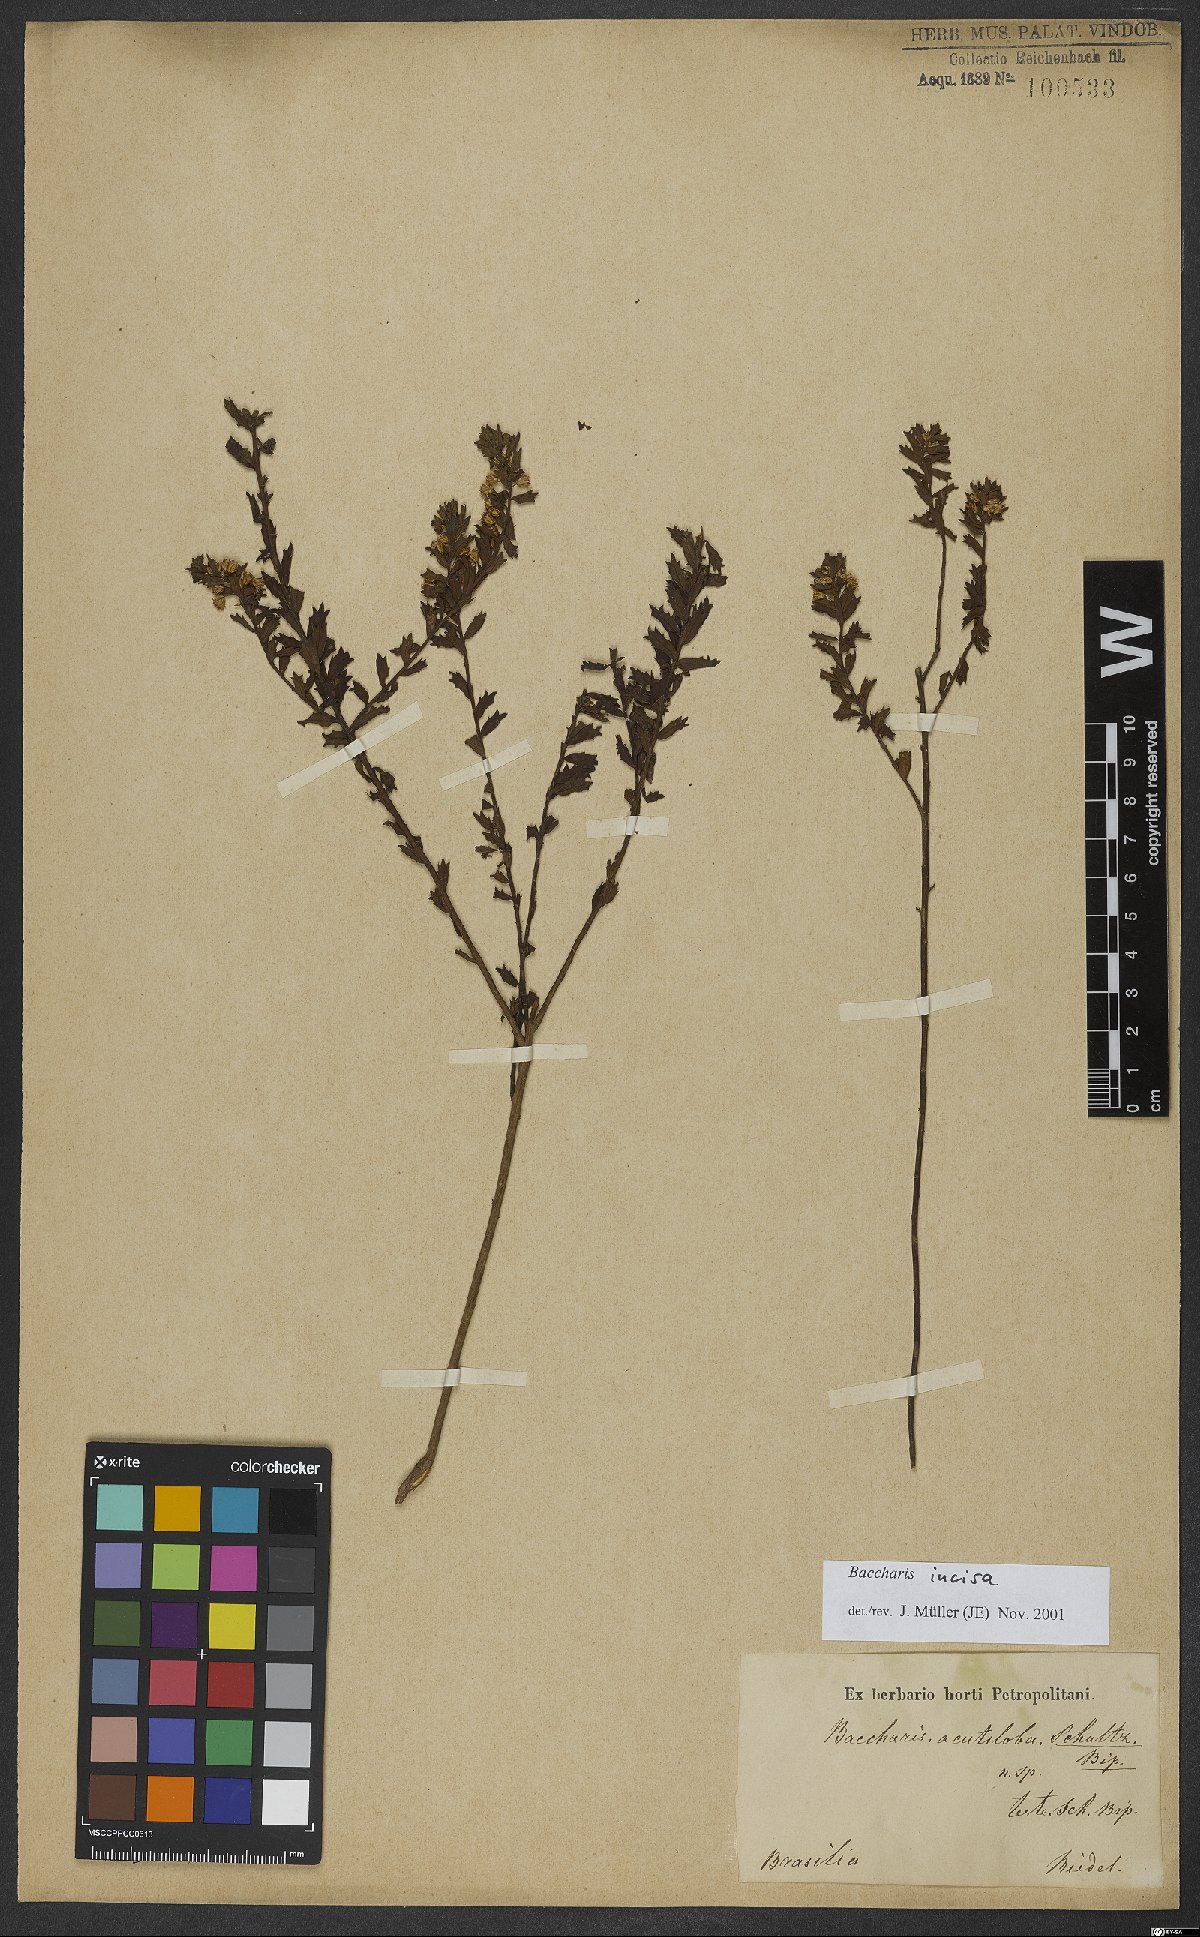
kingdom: Plantae
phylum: Tracheophyta
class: Magnoliopsida
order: Asterales
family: Asteraceae
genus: Baccharis
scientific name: Baccharis incisa
